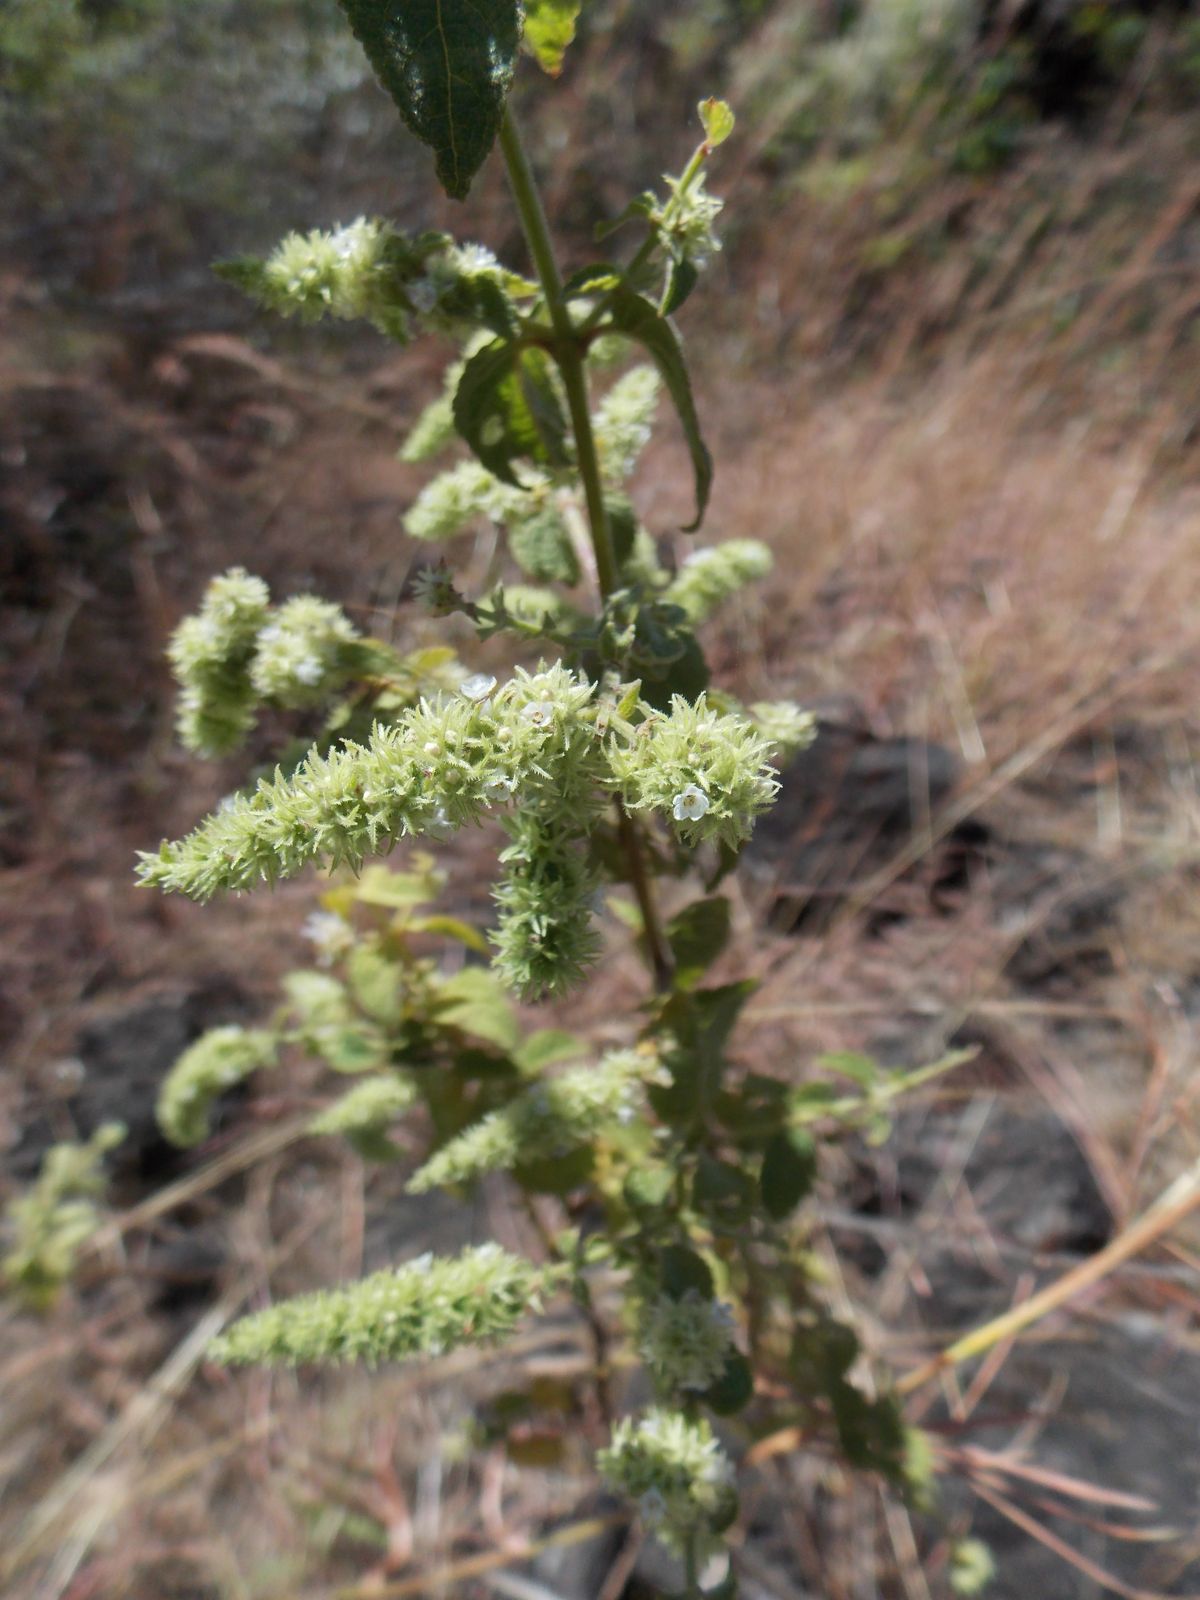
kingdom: Plantae
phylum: Tracheophyta
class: Magnoliopsida
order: Lamiales
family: Lamiaceae
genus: Asterohyptis
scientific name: Asterohyptis mociniana
